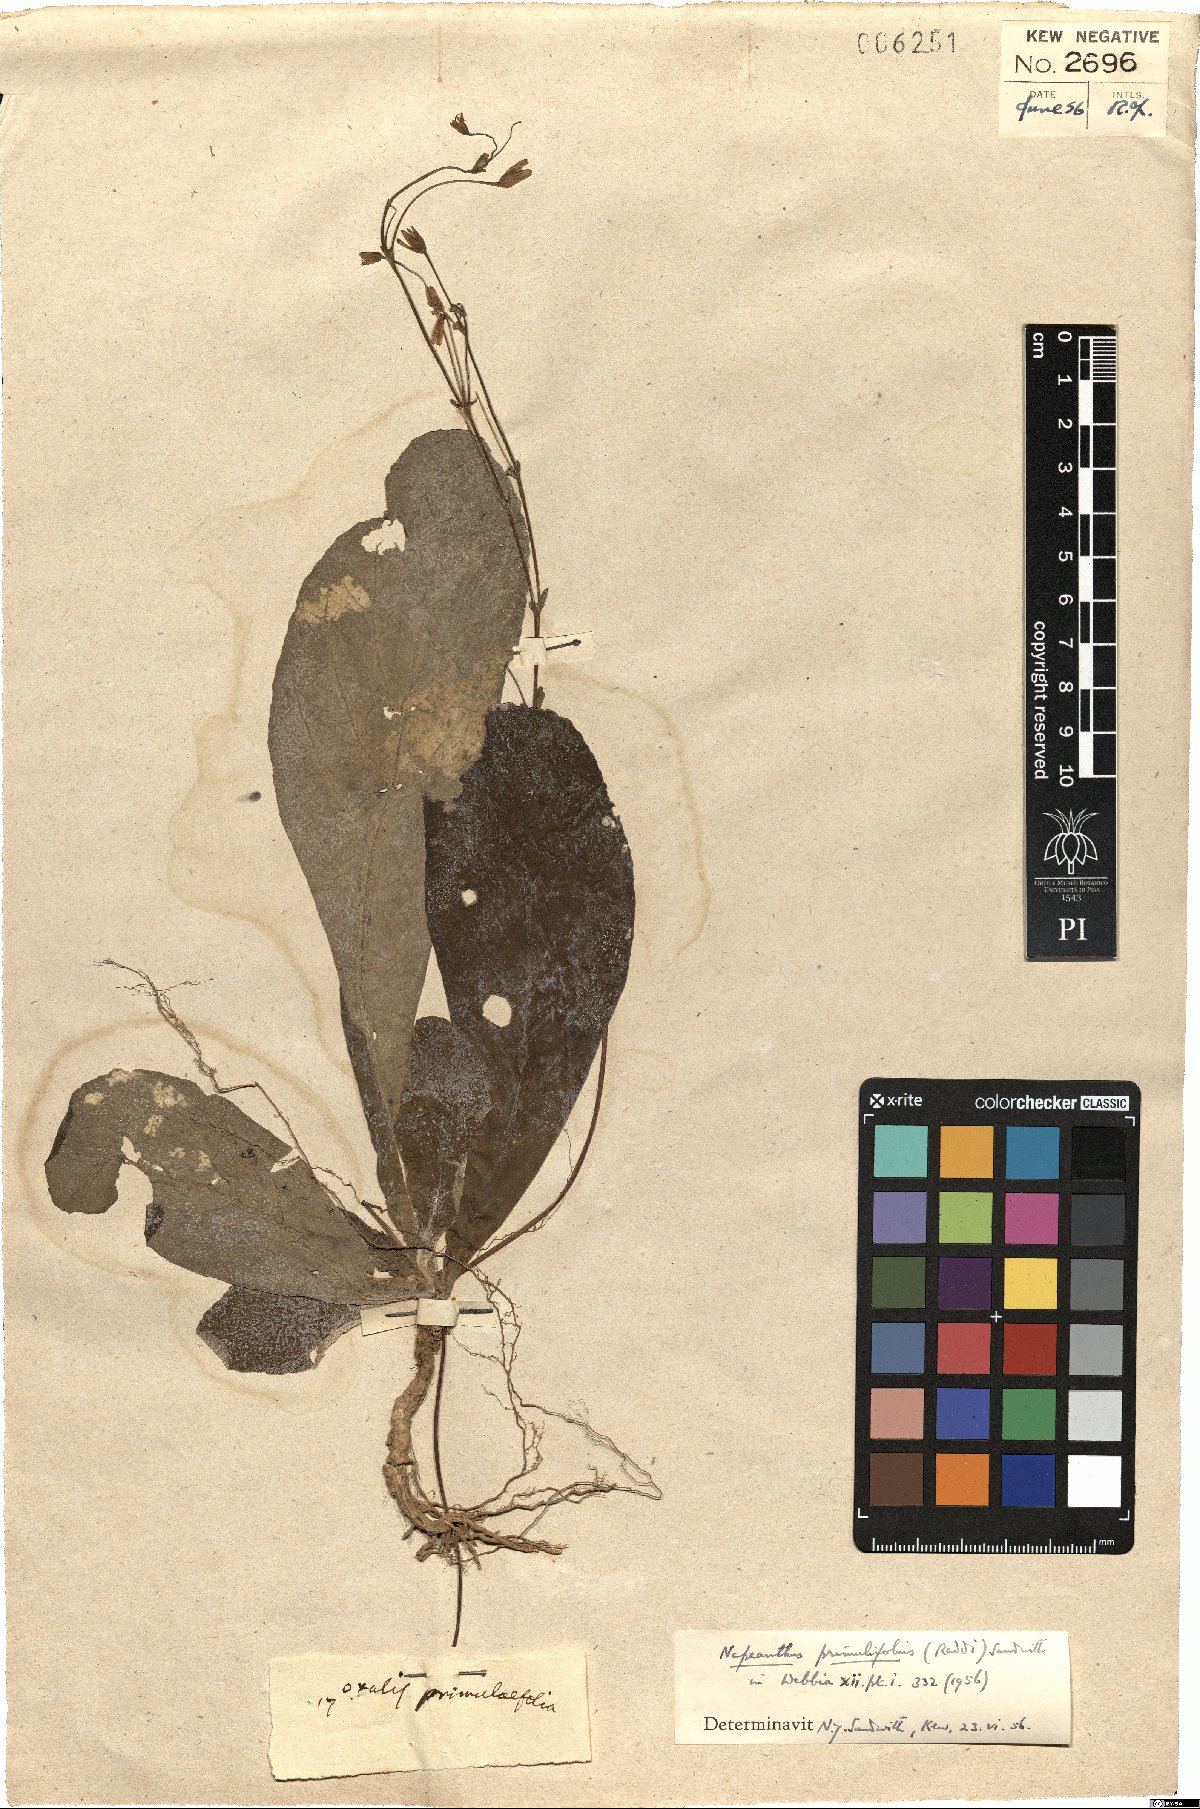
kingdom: Plantae
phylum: Tracheophyta
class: Magnoliopsida
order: Lamiales
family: Gesneriaceae
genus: Napeanthus
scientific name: Napeanthus primulifolius
